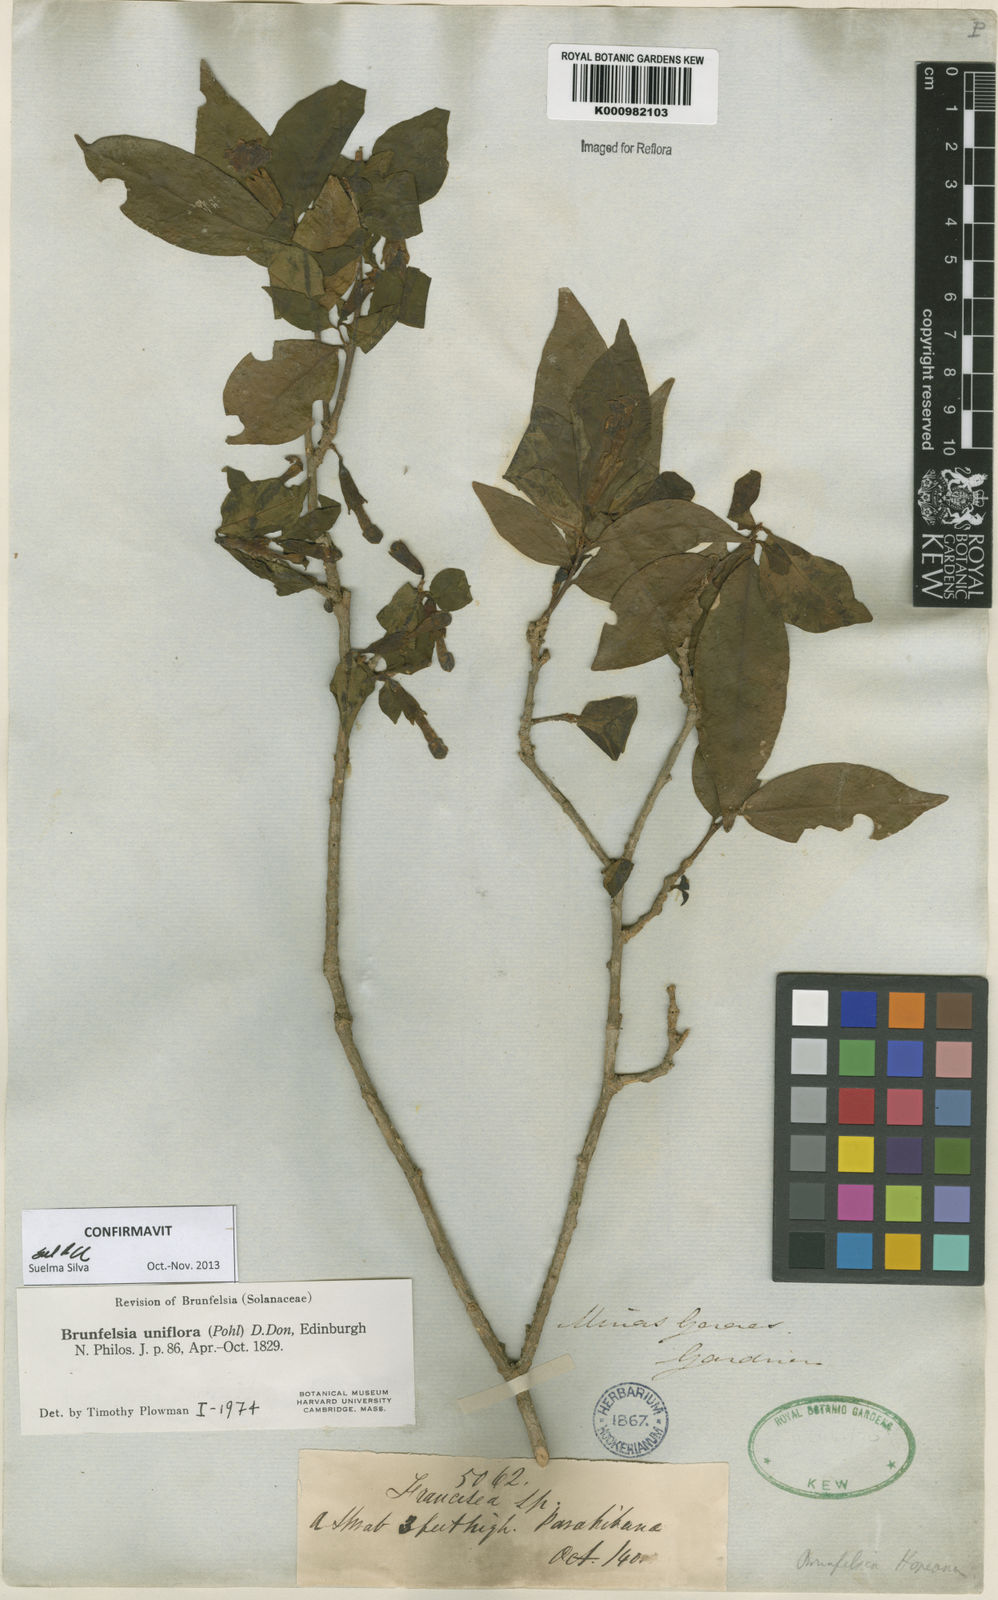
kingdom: Plantae
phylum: Tracheophyta
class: Magnoliopsida
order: Solanales
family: Solanaceae
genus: Brunfelsia
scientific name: Brunfelsia uniflora
